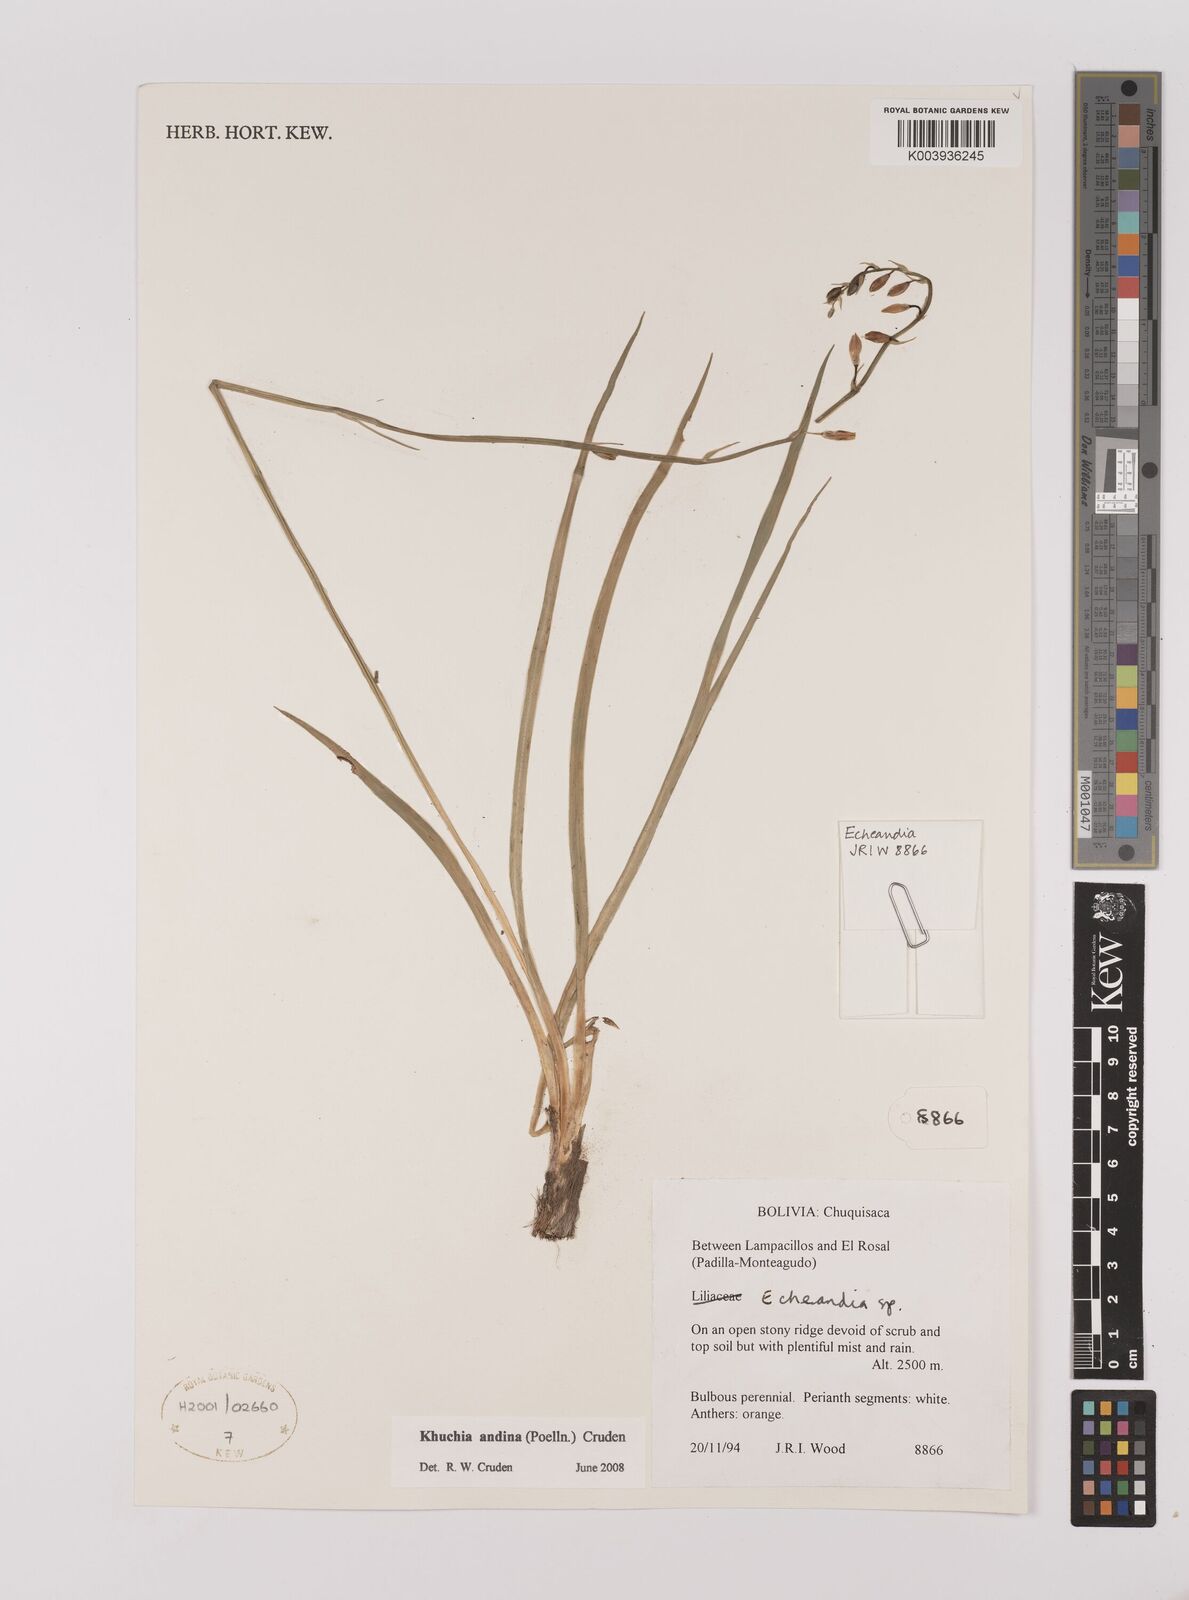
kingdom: Plantae
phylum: Tracheophyta
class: Liliopsida
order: Asparagales
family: Asparagaceae
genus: Echeandia
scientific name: Echeandia
